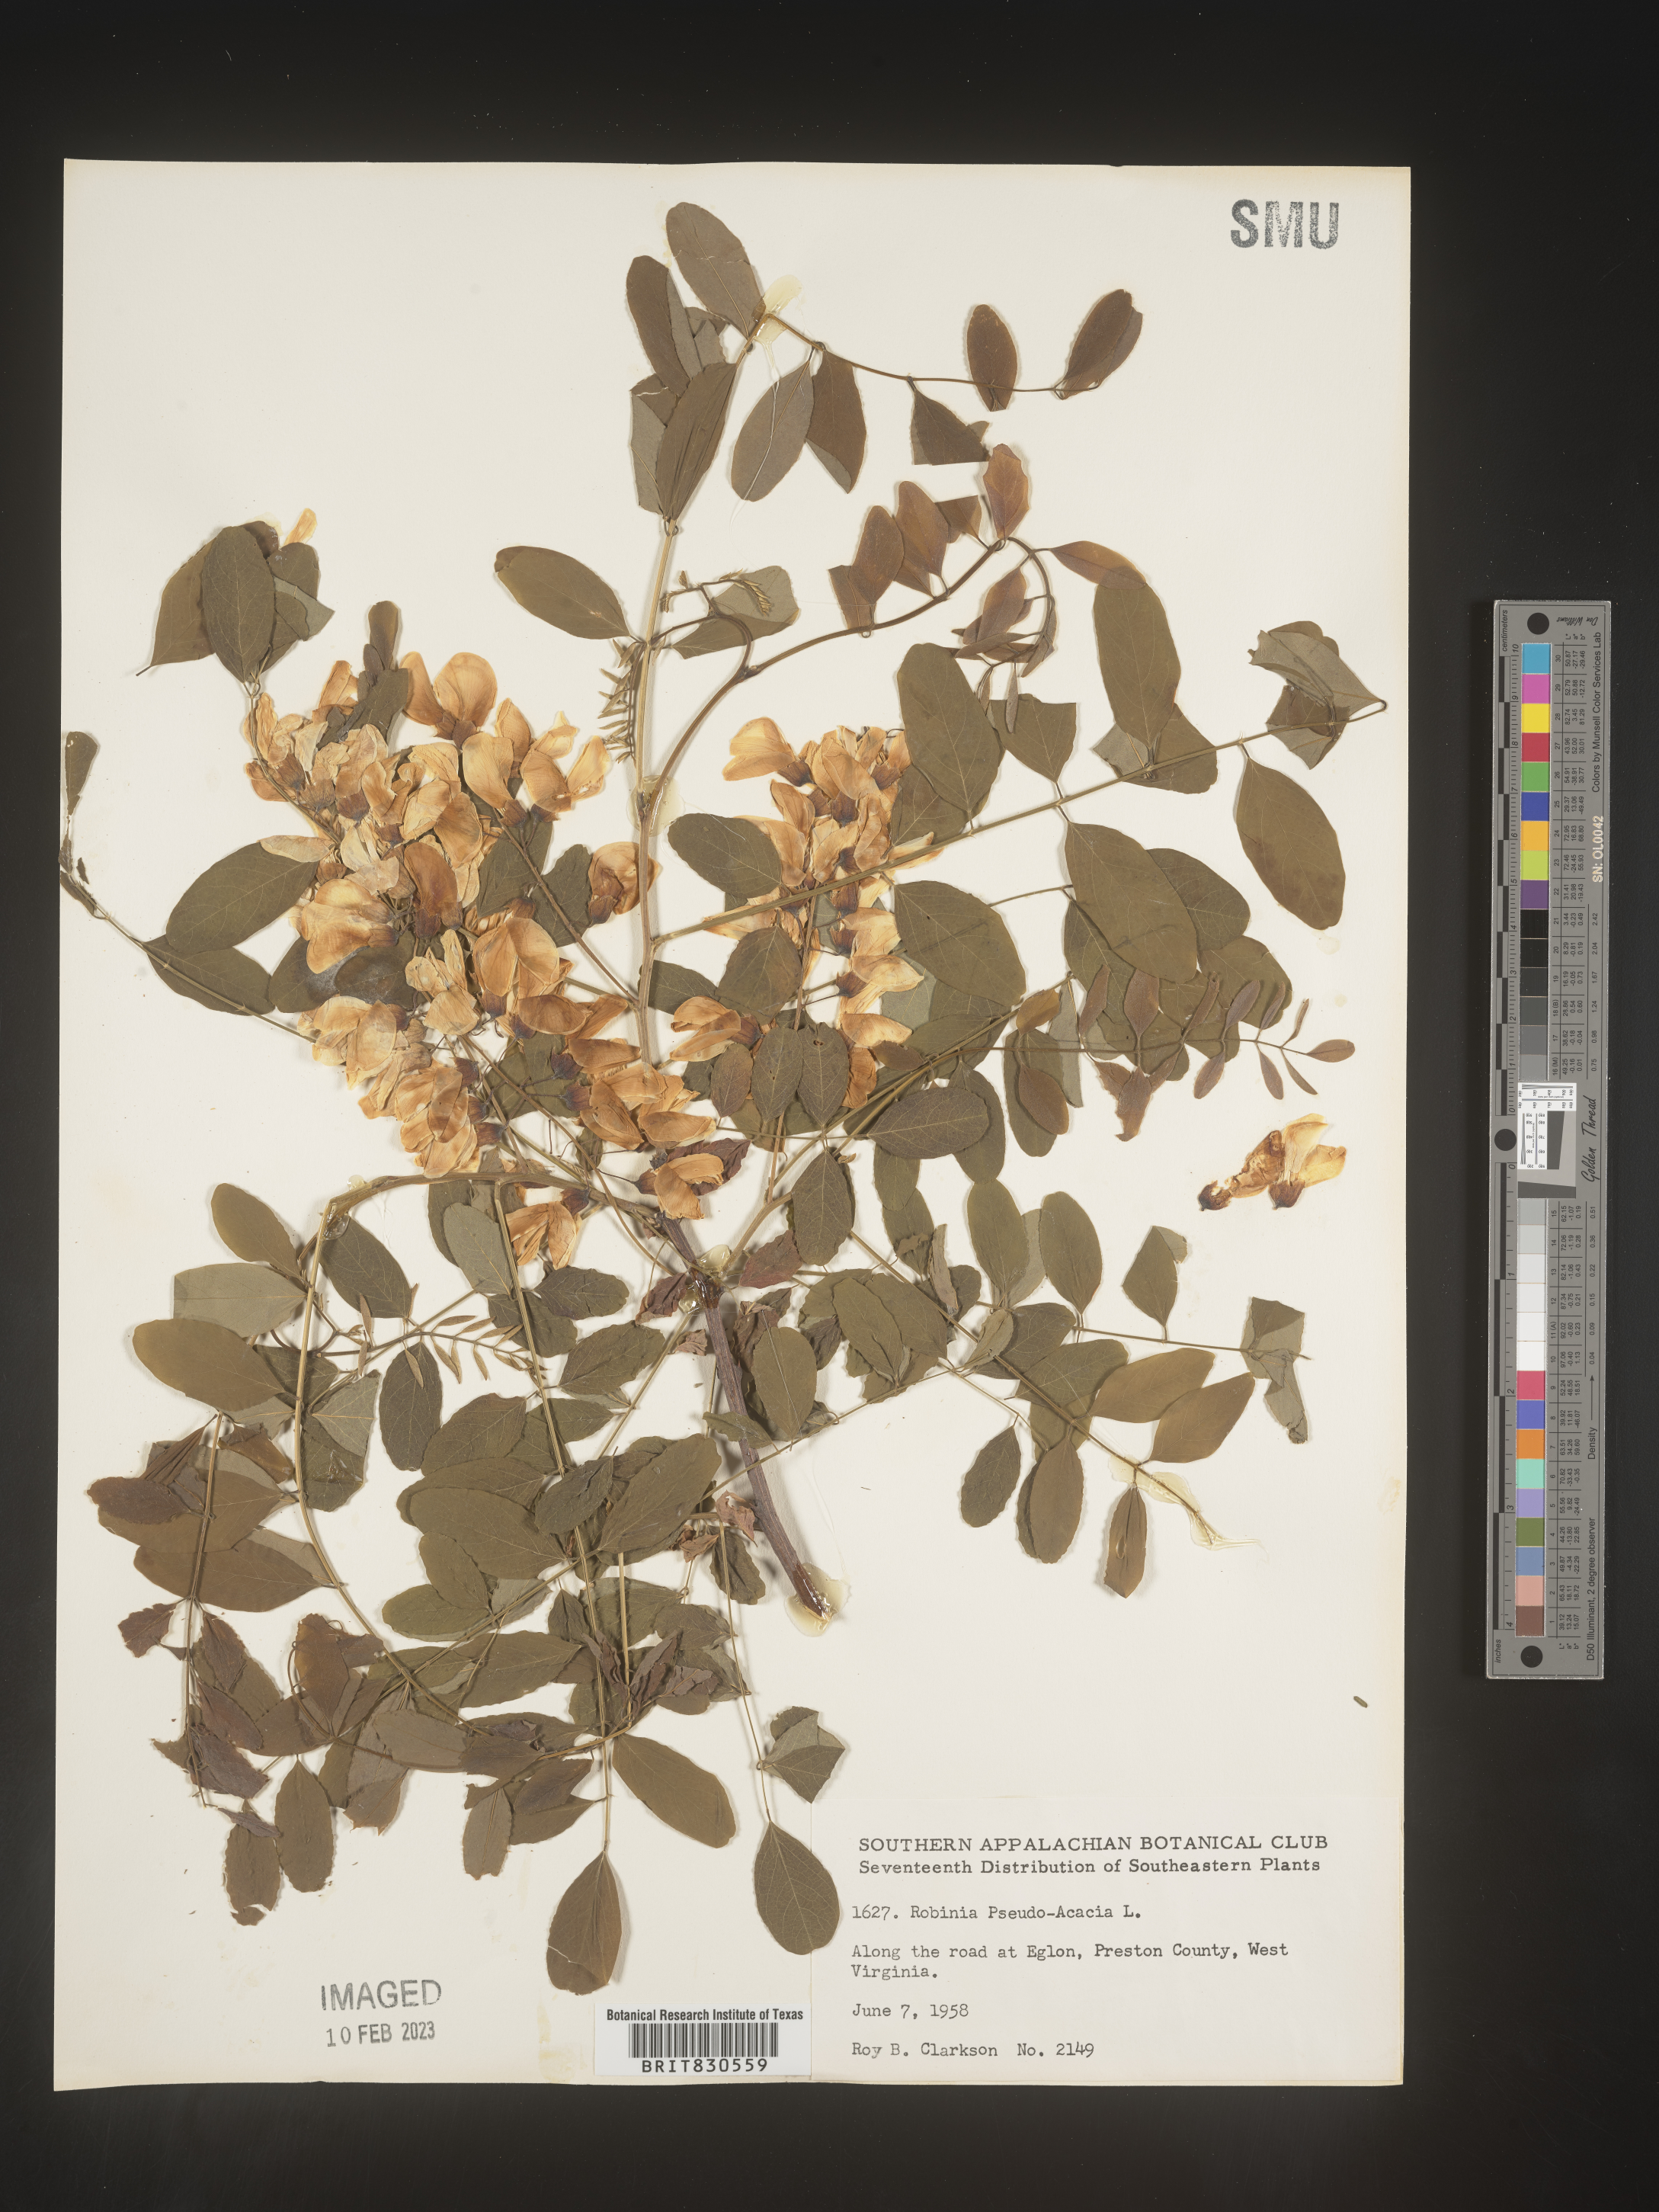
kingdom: Plantae
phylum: Tracheophyta
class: Magnoliopsida
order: Fabales
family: Fabaceae
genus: Robinia
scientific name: Robinia pseudoacacia
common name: Black locust
